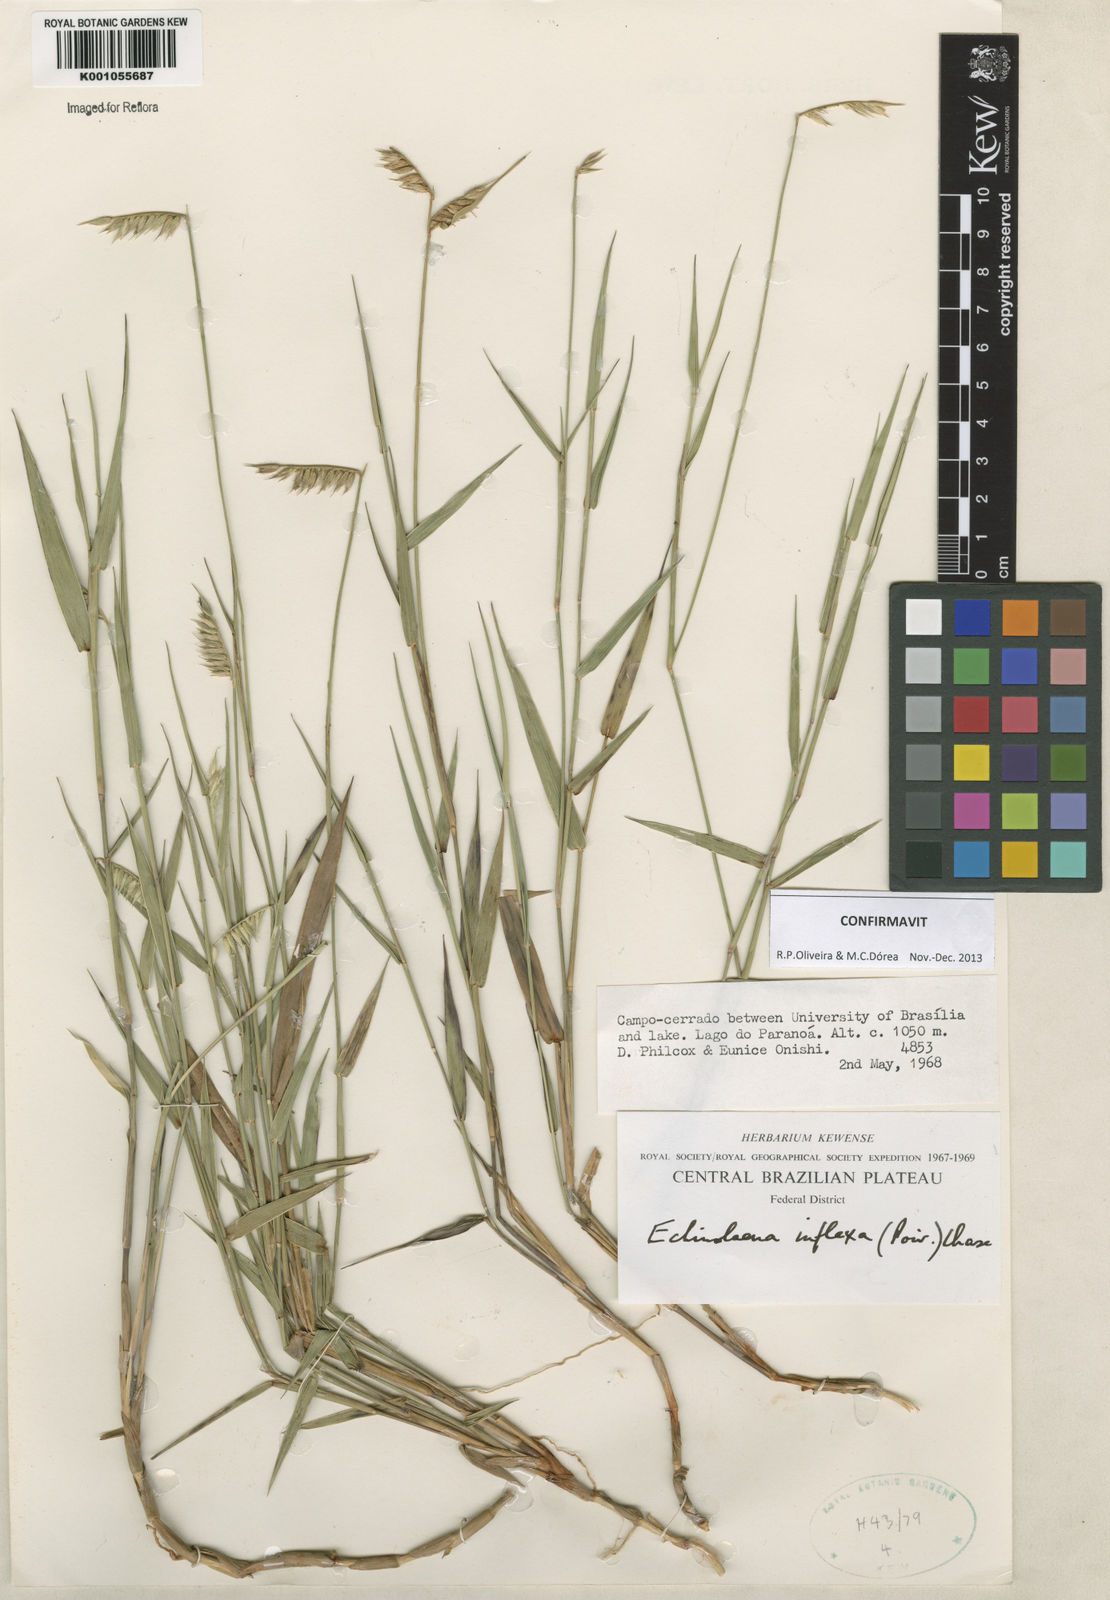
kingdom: Plantae
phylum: Tracheophyta
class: Liliopsida
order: Poales
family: Poaceae
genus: Echinolaena
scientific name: Echinolaena inflexa
